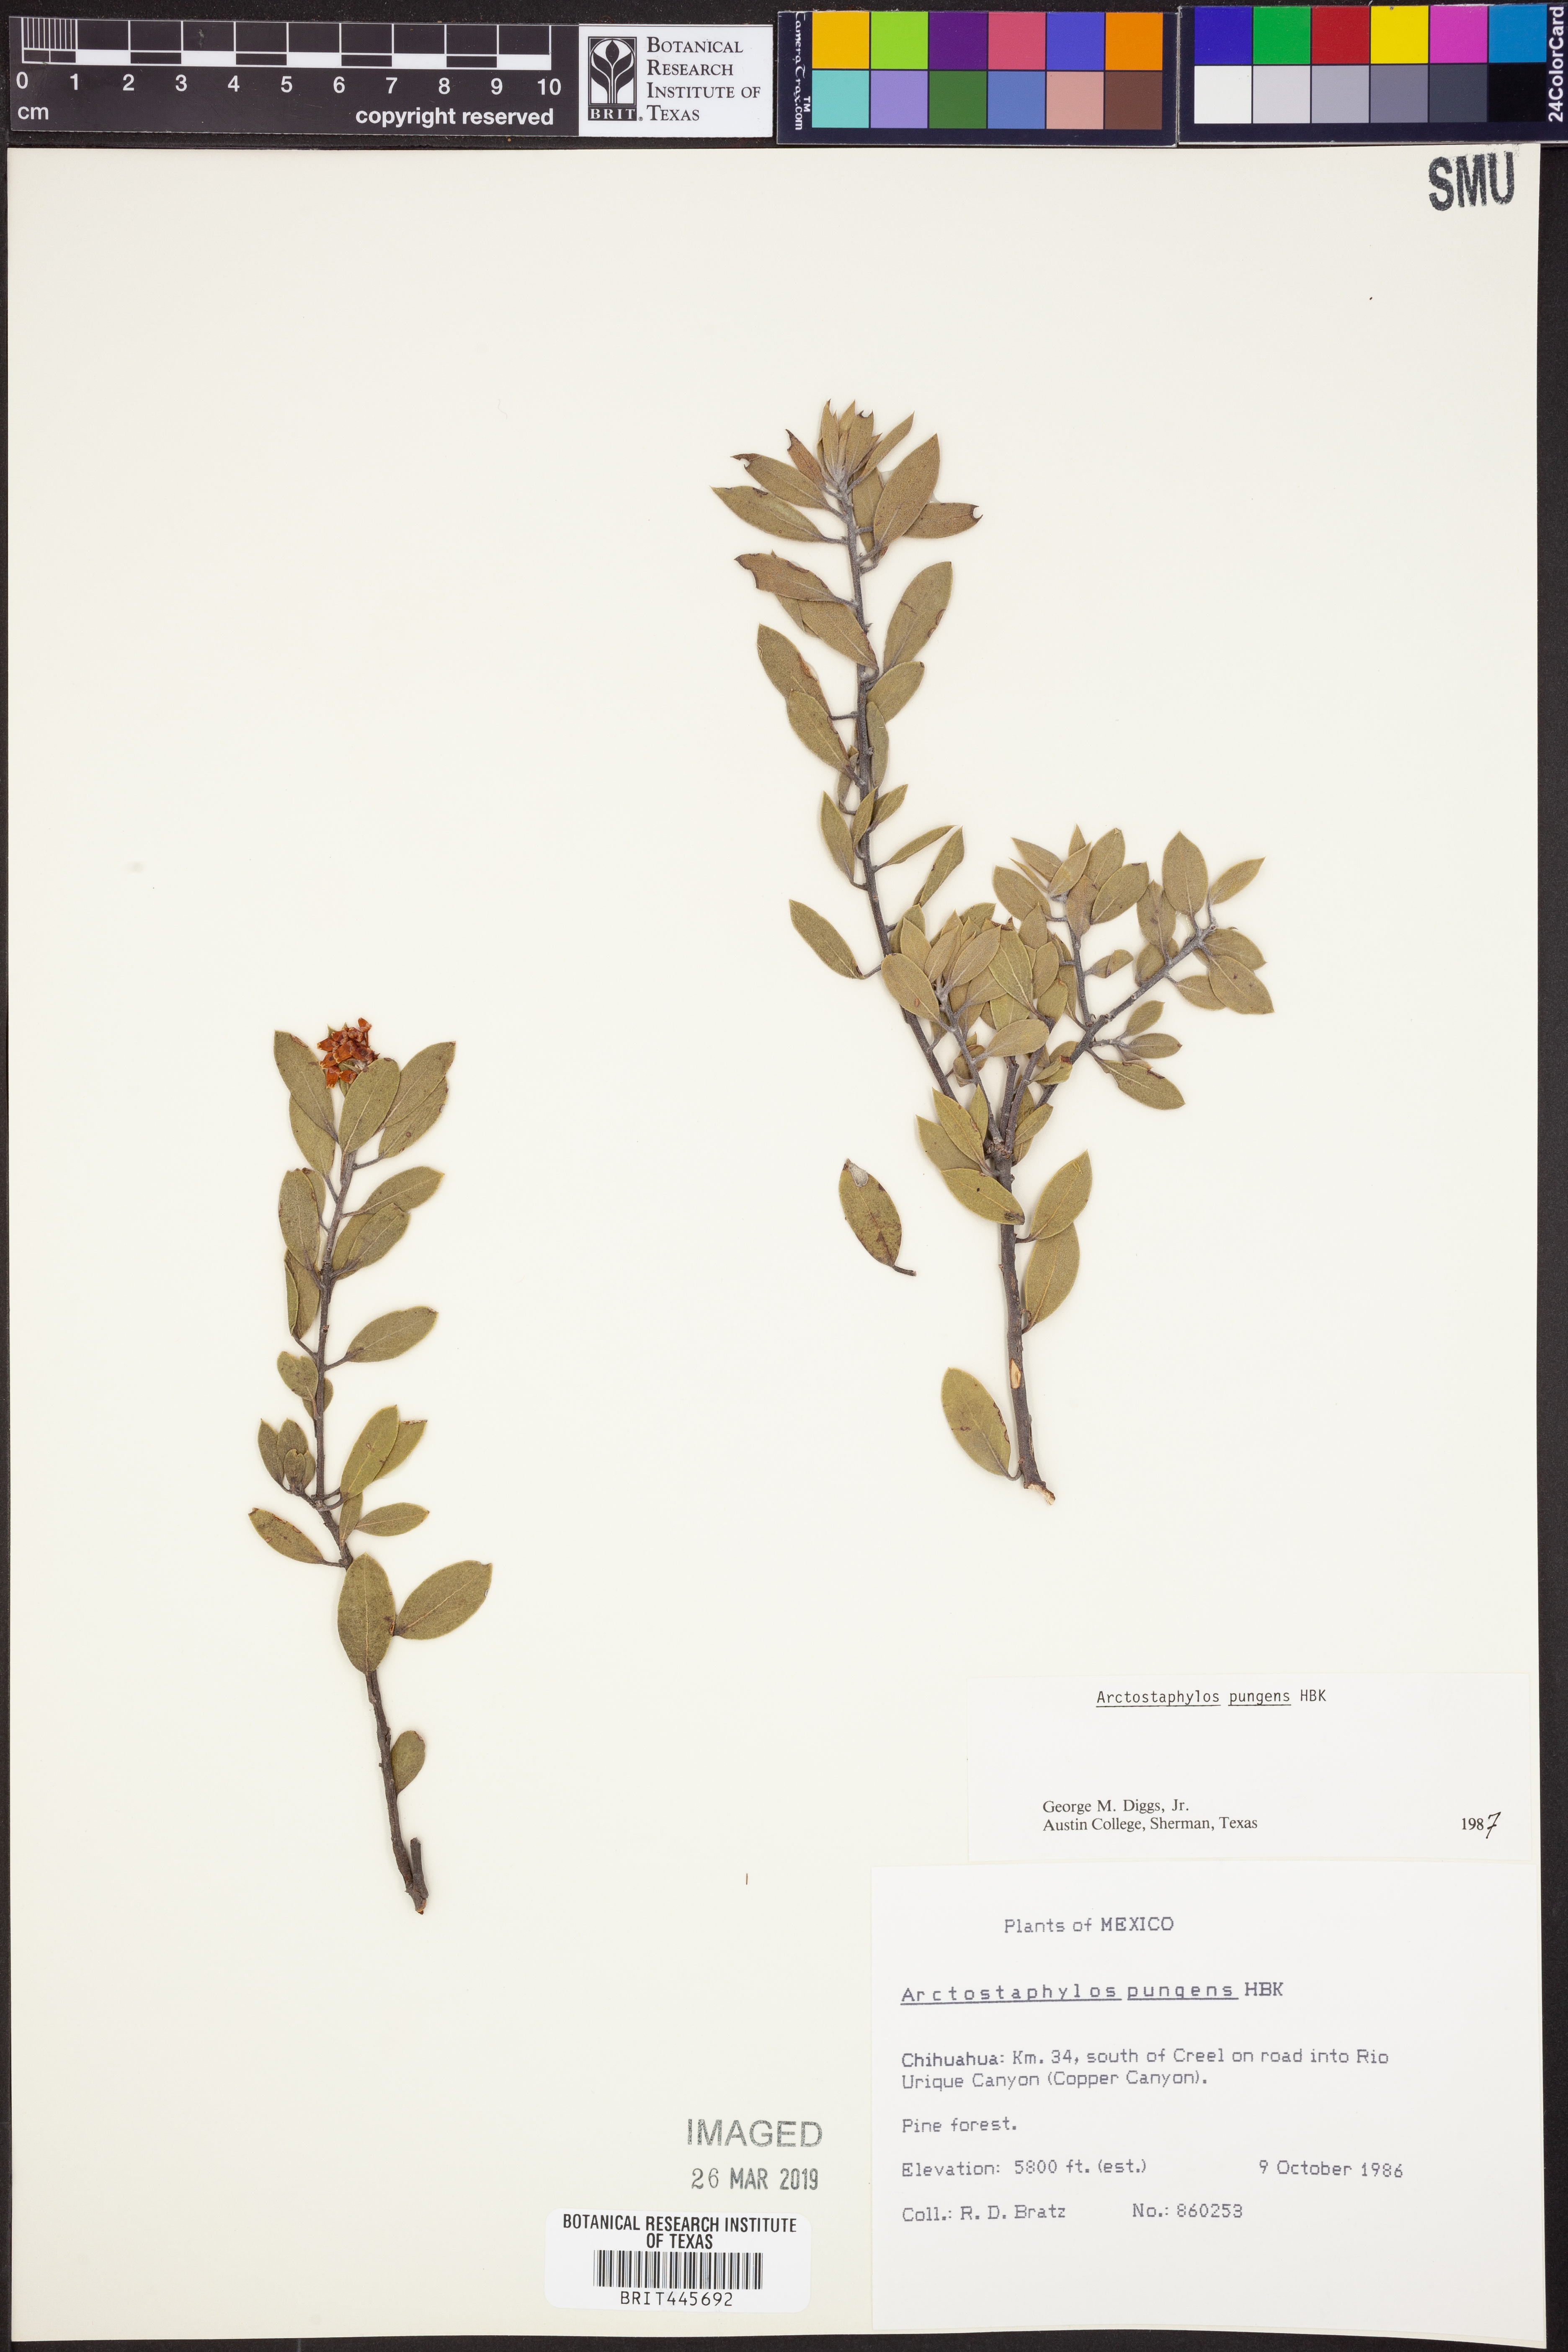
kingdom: Plantae
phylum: Tracheophyta
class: Magnoliopsida
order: Ericales
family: Ericaceae
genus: Arctostaphylos
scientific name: Arctostaphylos pungens
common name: Mexican manzanita
